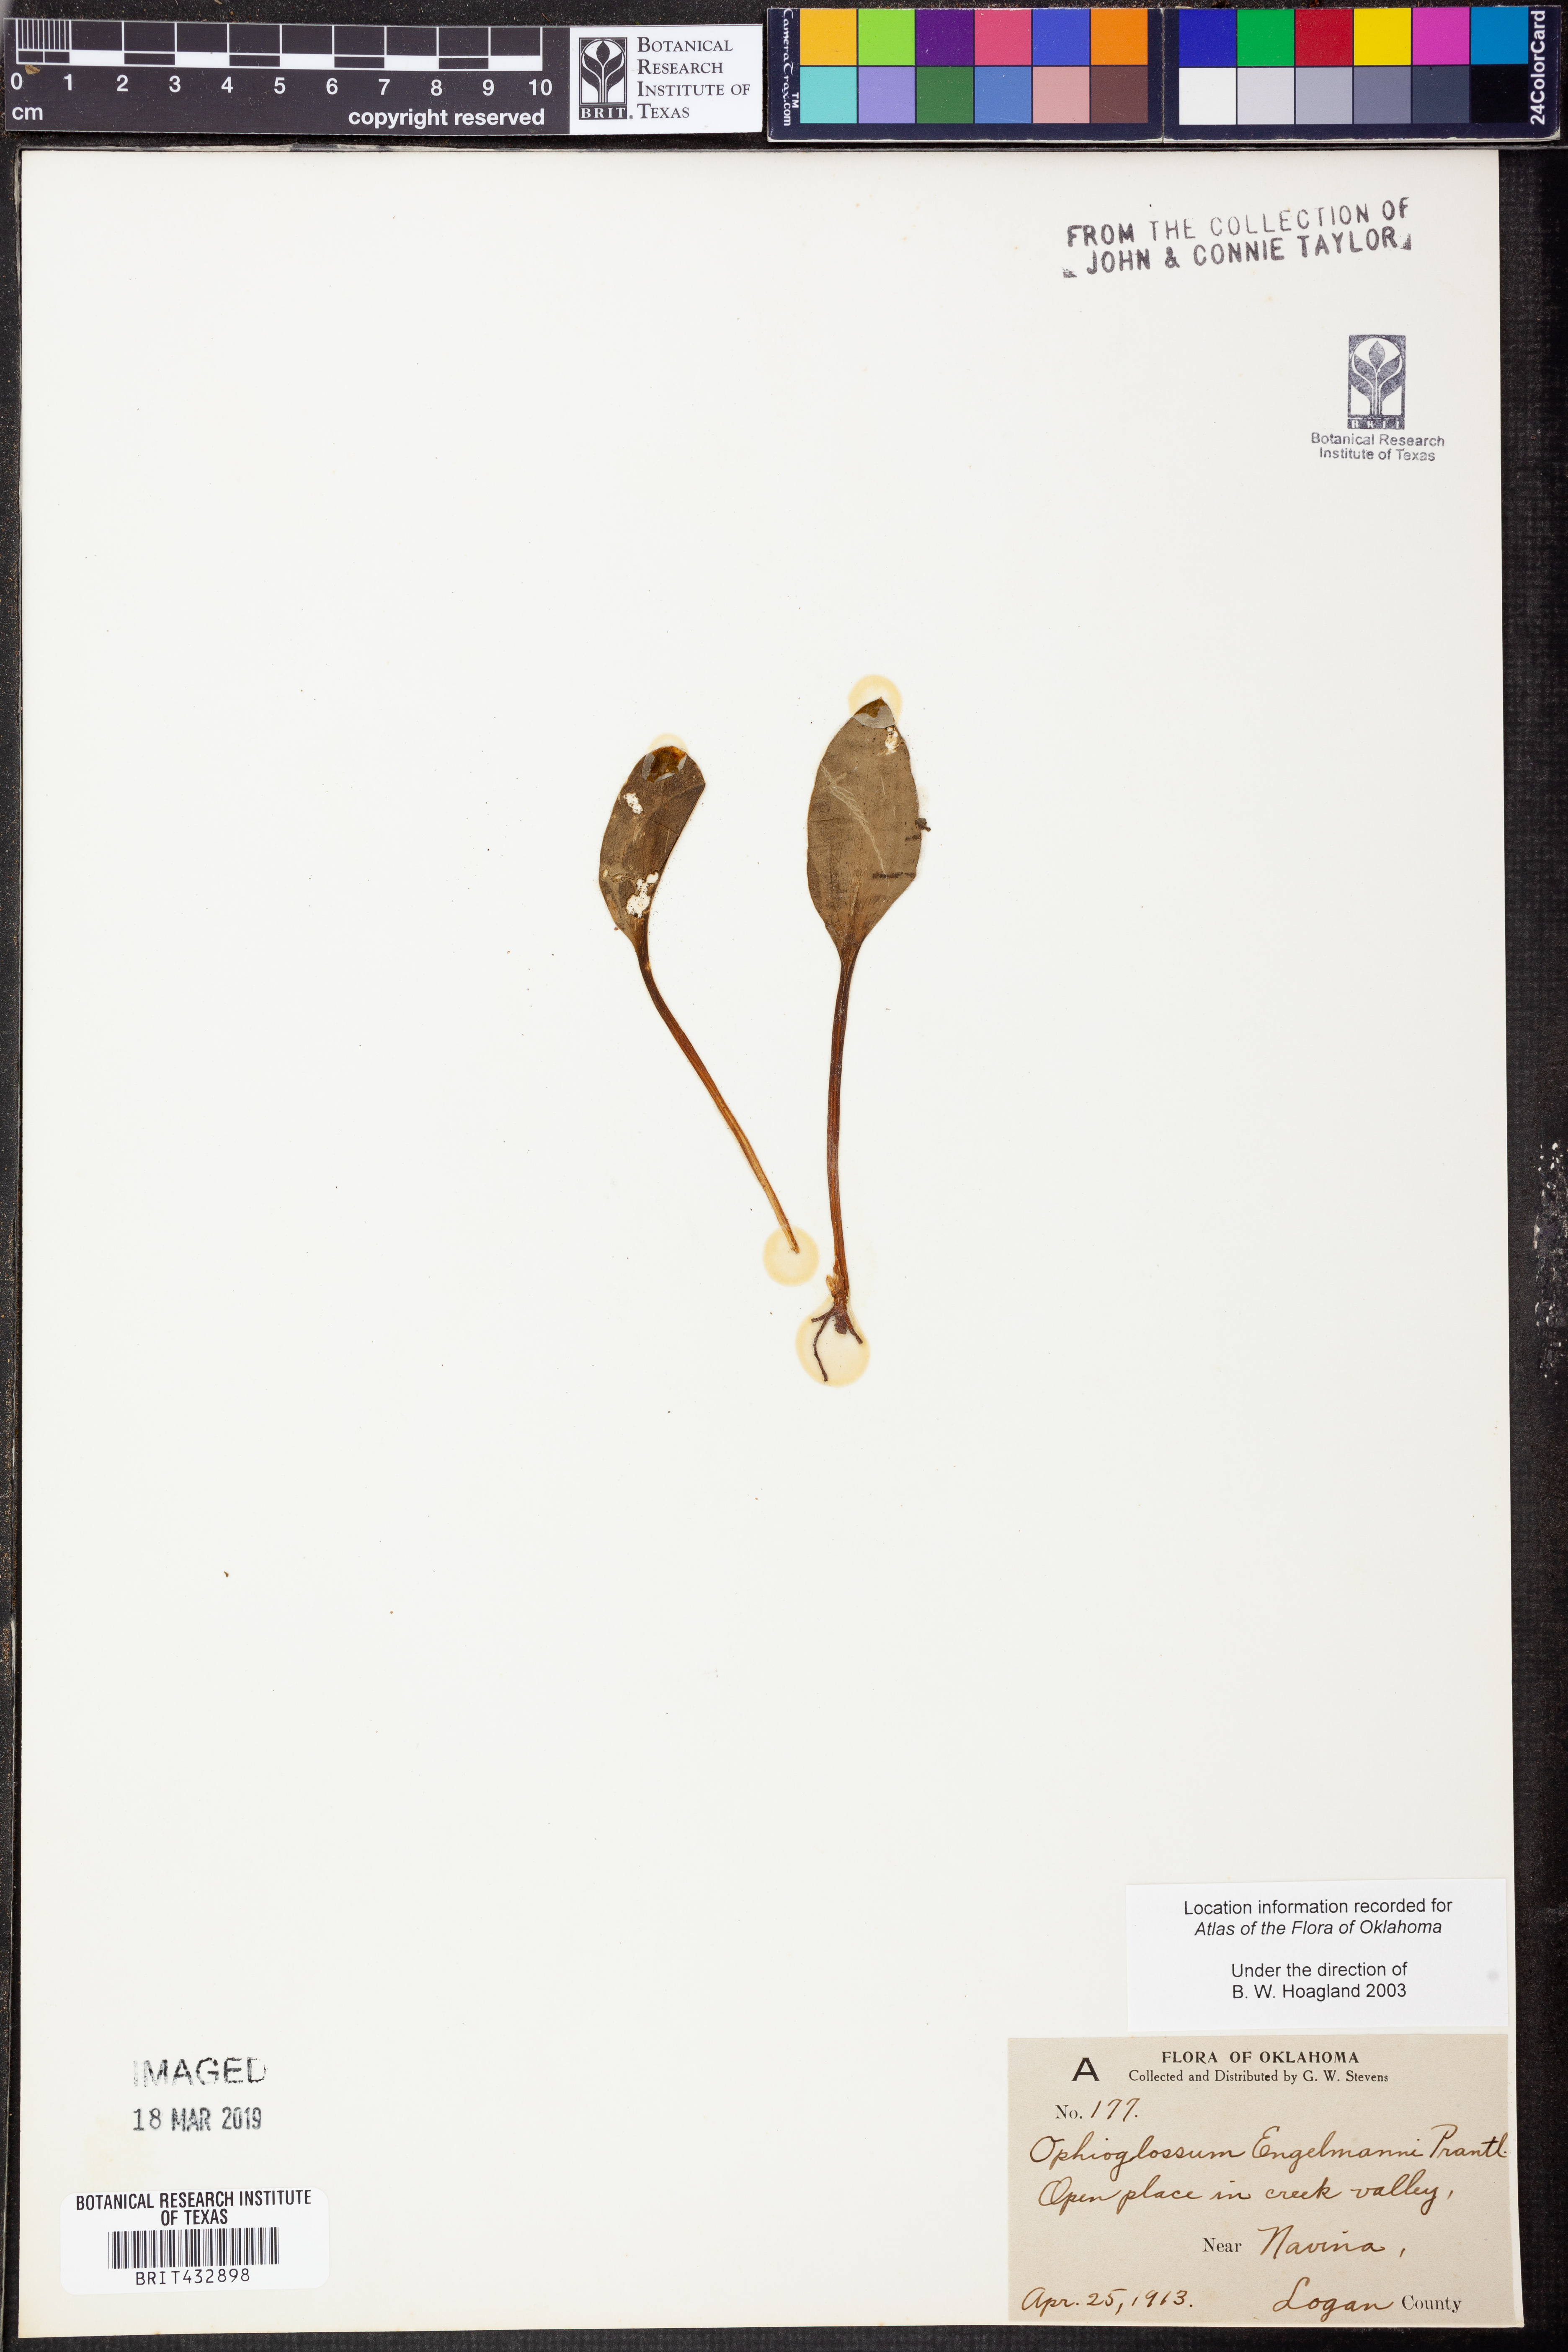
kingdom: Plantae
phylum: Tracheophyta
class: Polypodiopsida
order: Ophioglossales
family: Ophioglossaceae
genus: Ophioglossum
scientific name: Ophioglossum engelmannii
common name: Limestone adder's-tongue
